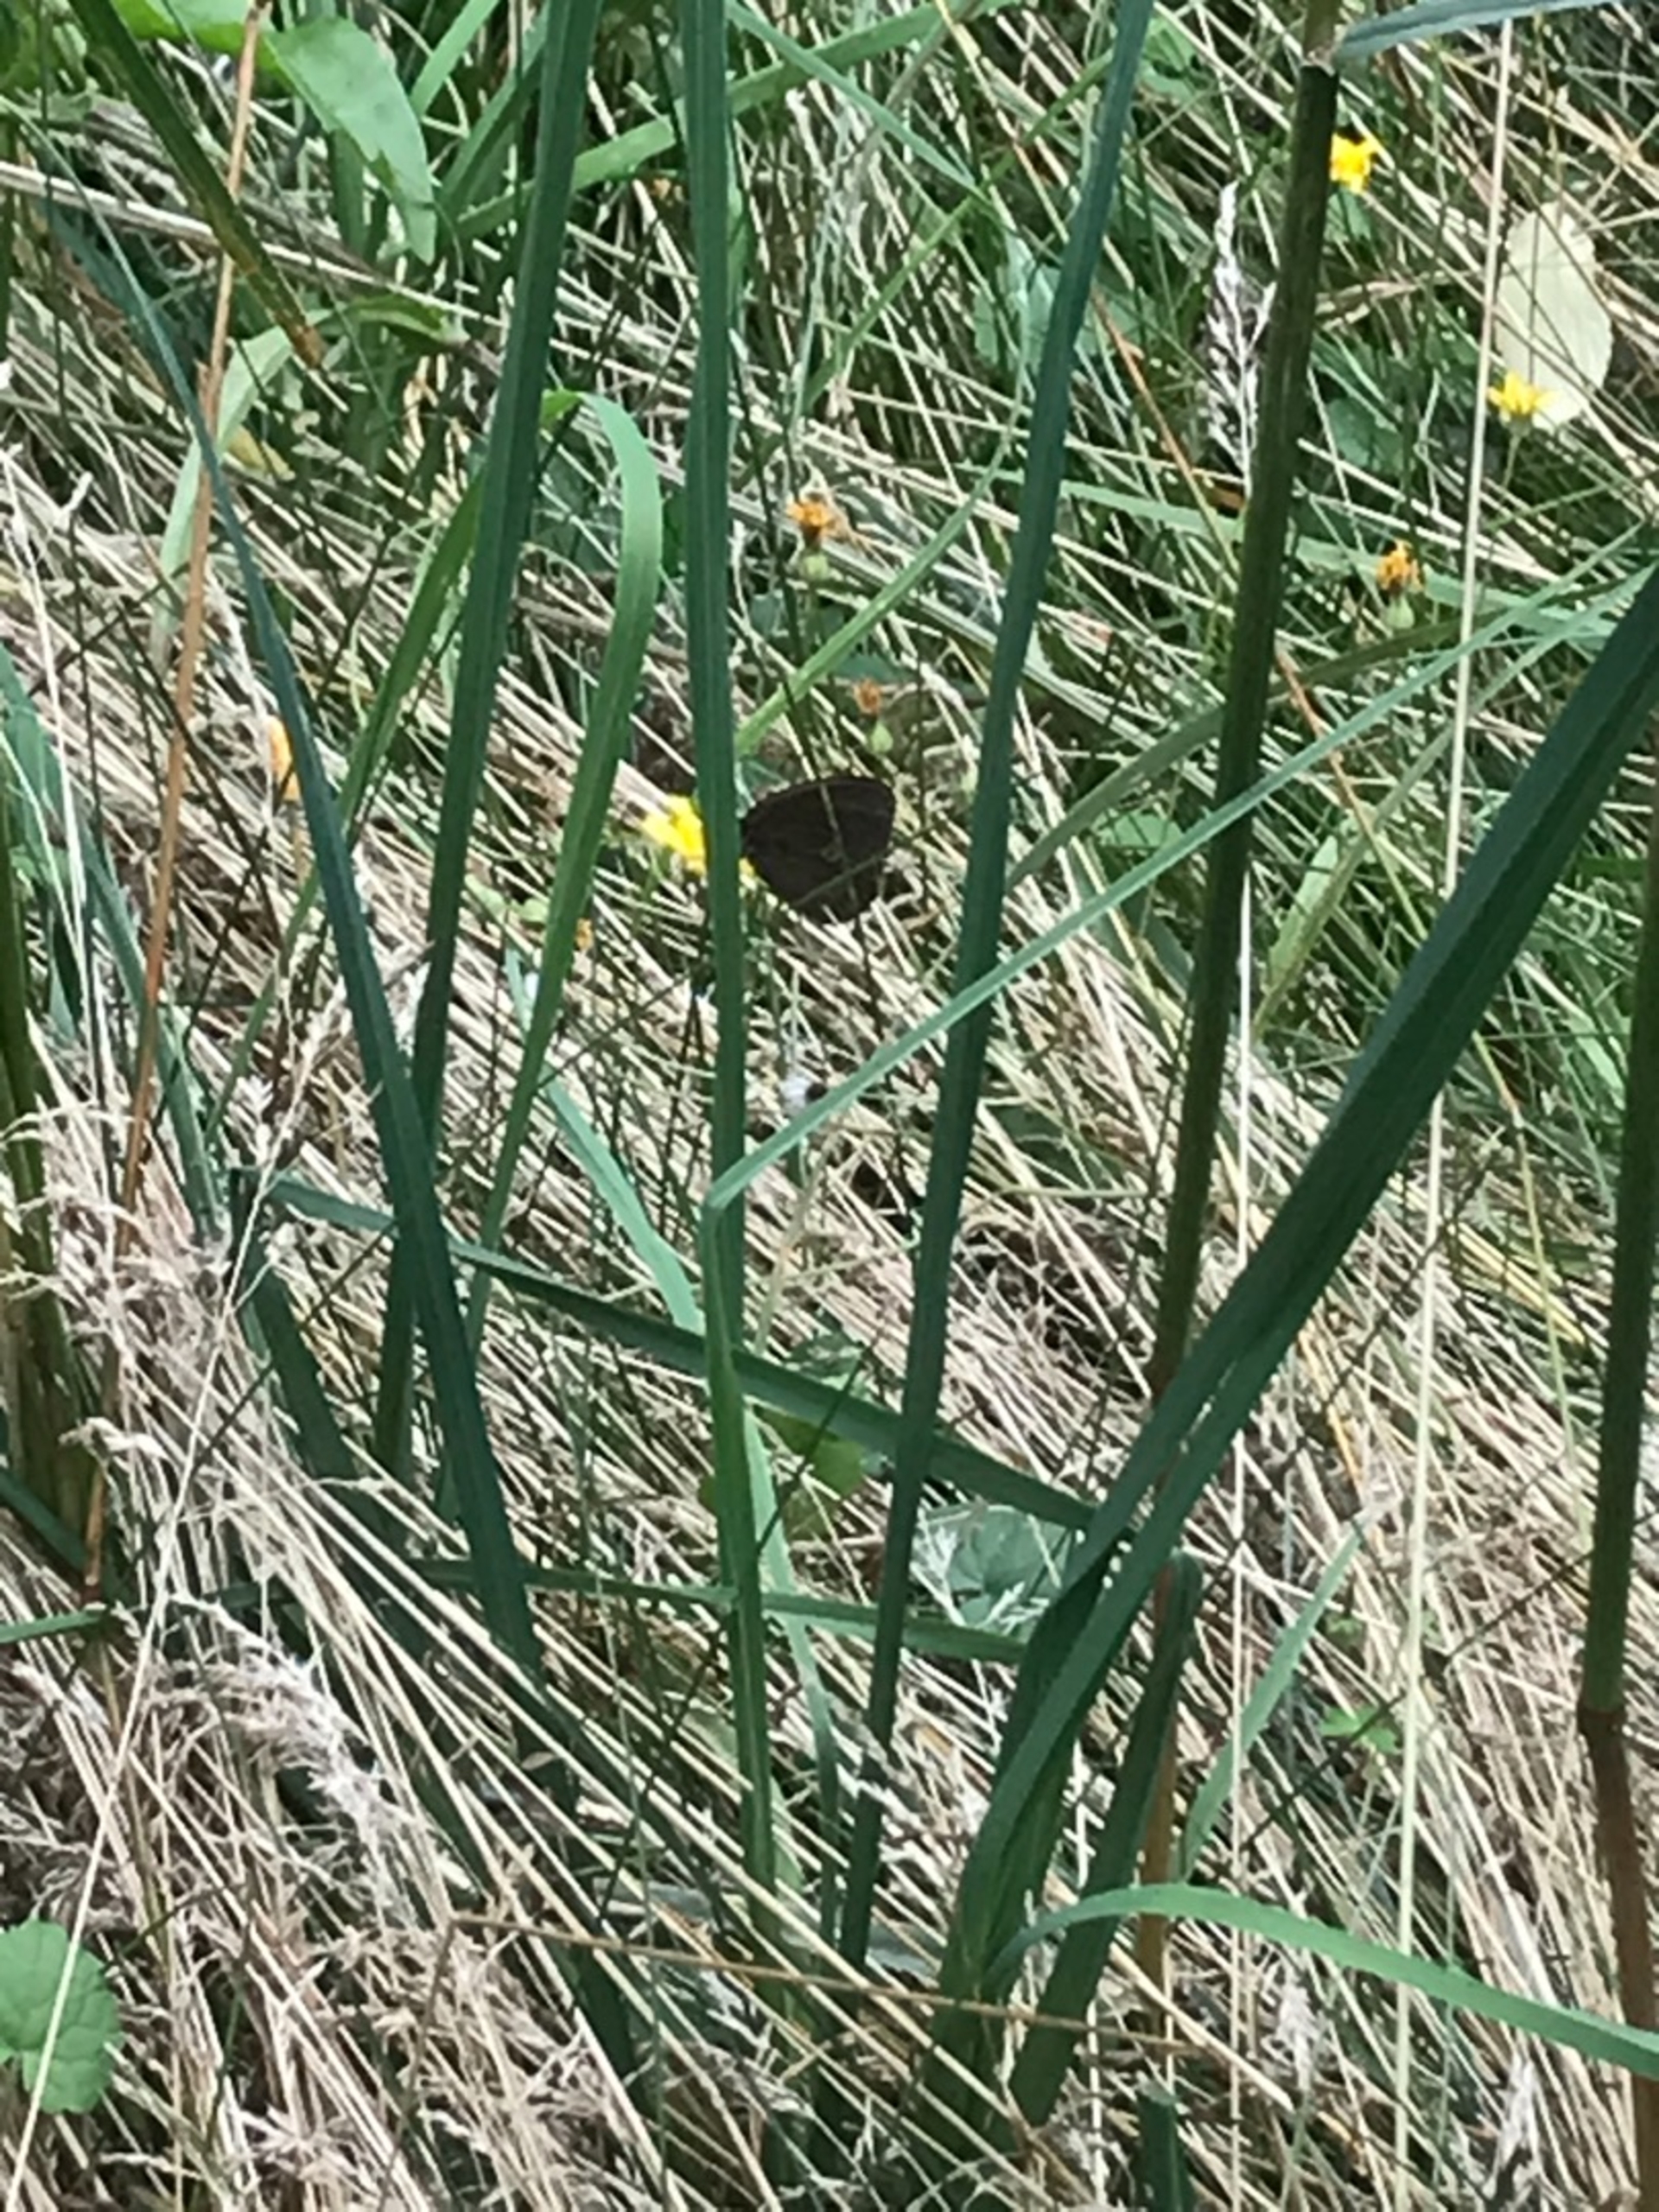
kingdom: Animalia
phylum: Arthropoda
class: Insecta
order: Lepidoptera
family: Nymphalidae
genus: Aphantopus
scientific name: Aphantopus hyperantus
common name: Engrandøje
